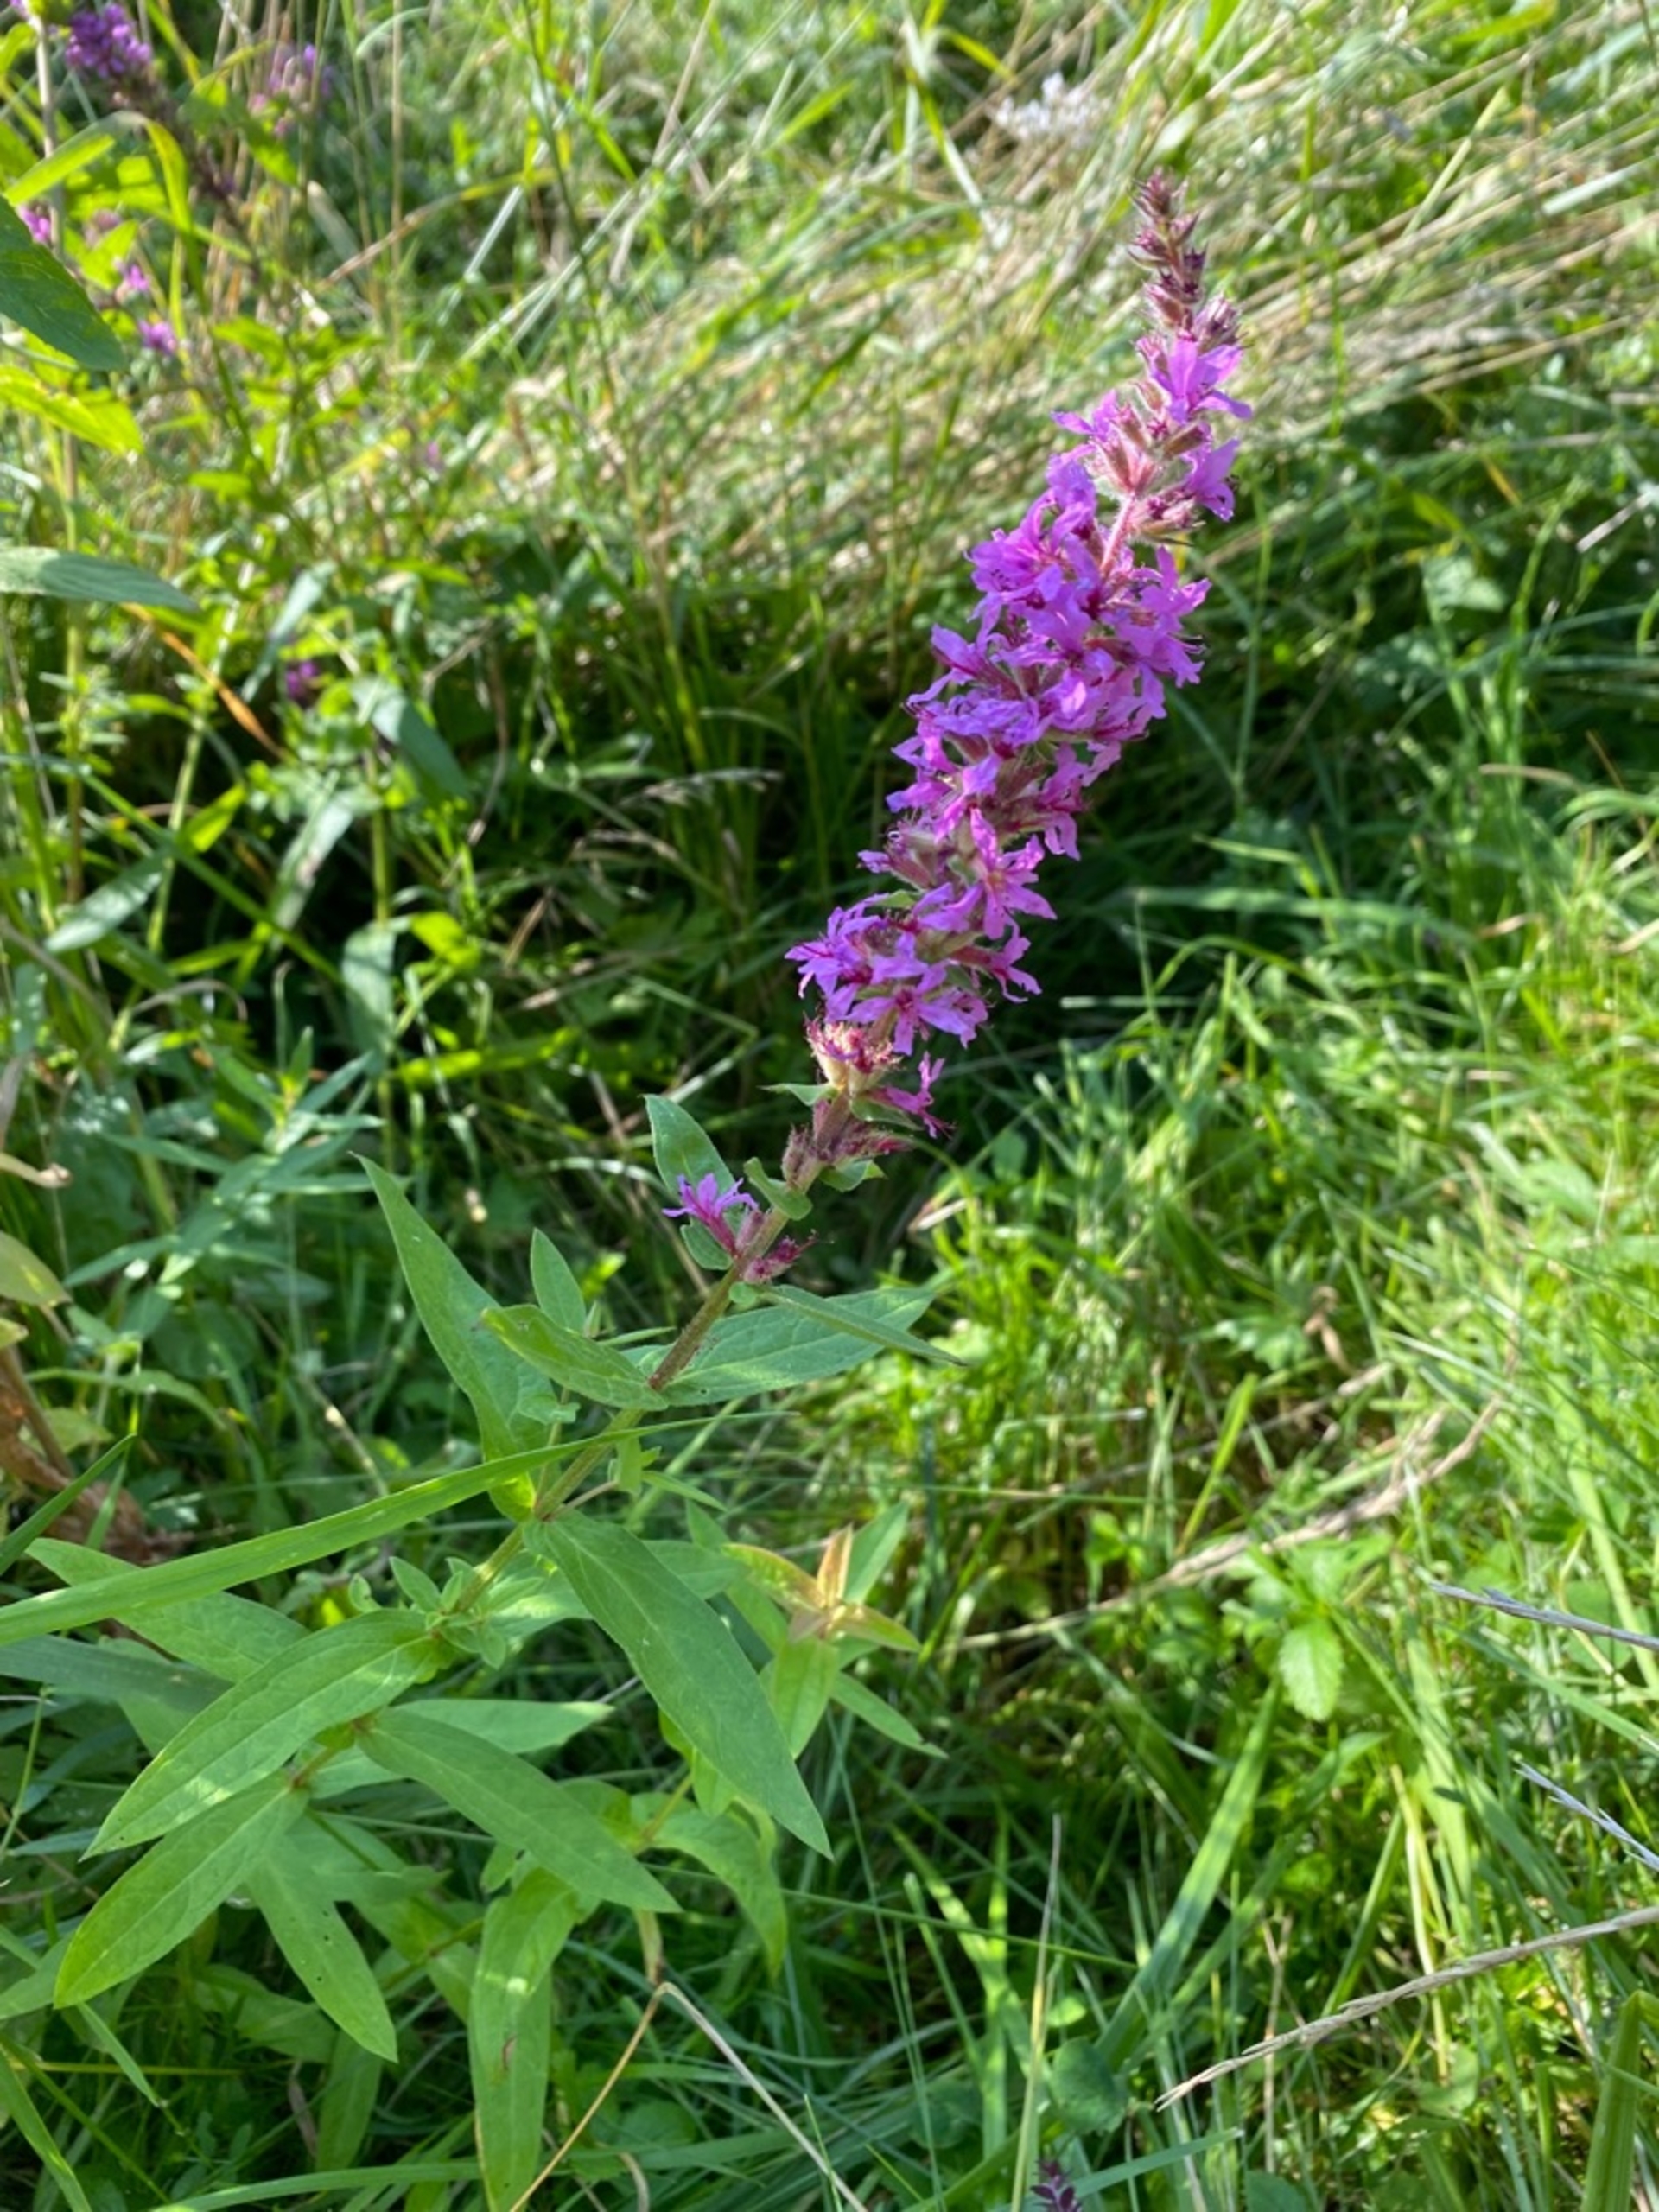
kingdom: Plantae
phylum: Tracheophyta
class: Magnoliopsida
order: Myrtales
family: Lythraceae
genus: Lythrum
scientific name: Lythrum salicaria
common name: Kattehale
